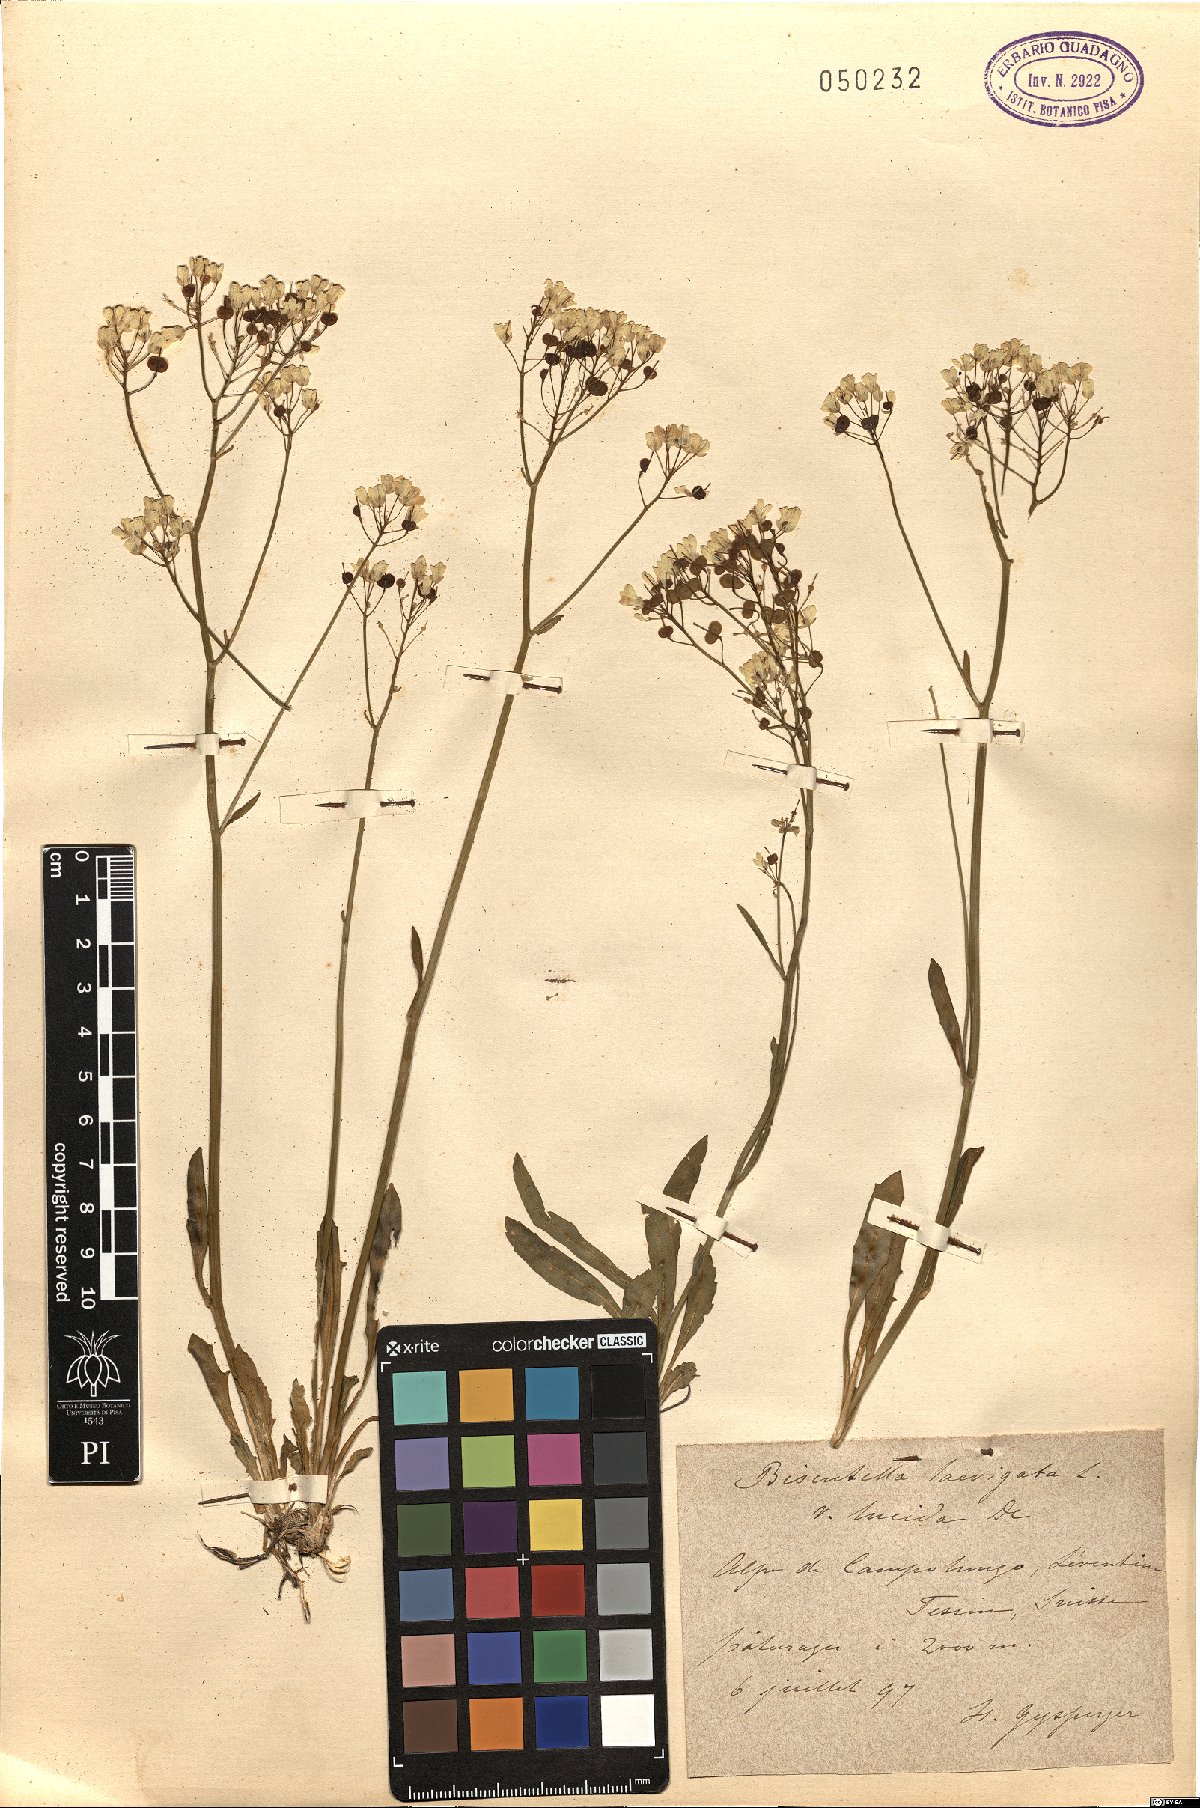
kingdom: Plantae
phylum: Tracheophyta
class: Magnoliopsida
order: Brassicales
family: Brassicaceae
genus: Biscutella
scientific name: Biscutella laevigata
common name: Buckler mustard
